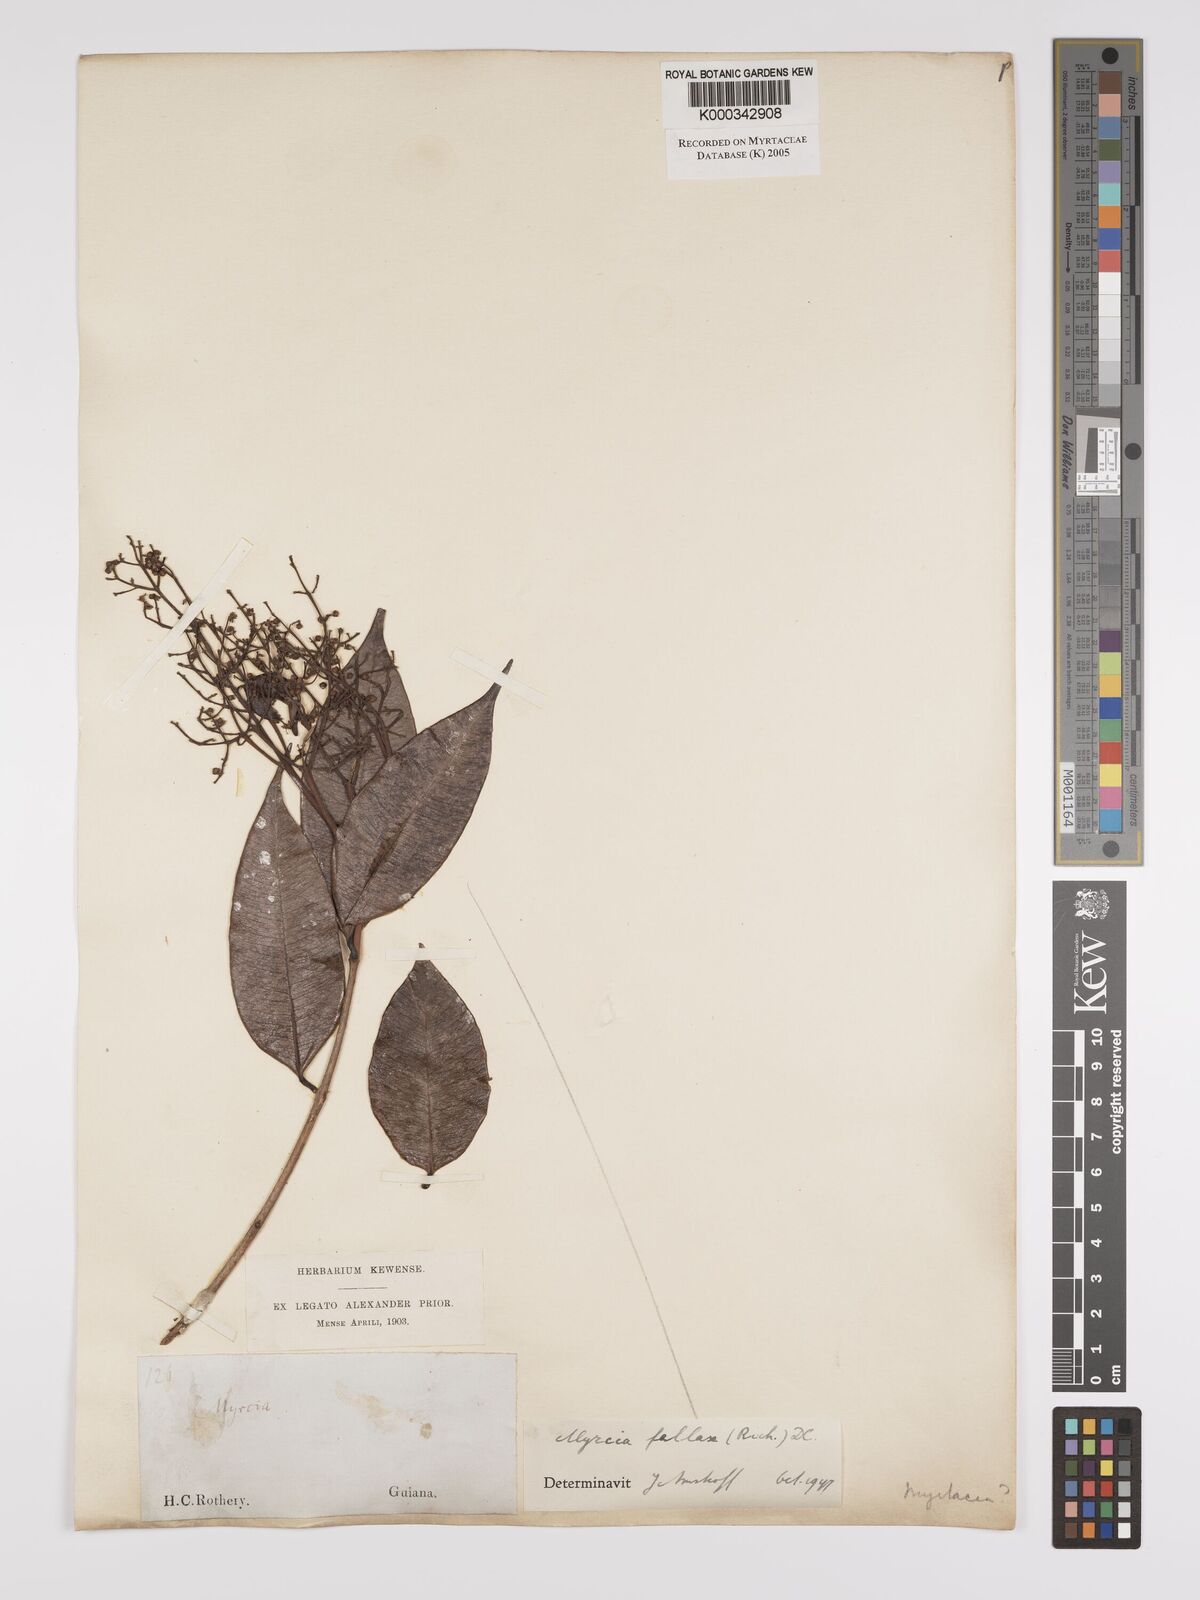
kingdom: Plantae
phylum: Tracheophyta
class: Magnoliopsida
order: Myrtales
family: Myrtaceae
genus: Myrcia
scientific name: Myrcia splendens
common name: Surinam cherry
